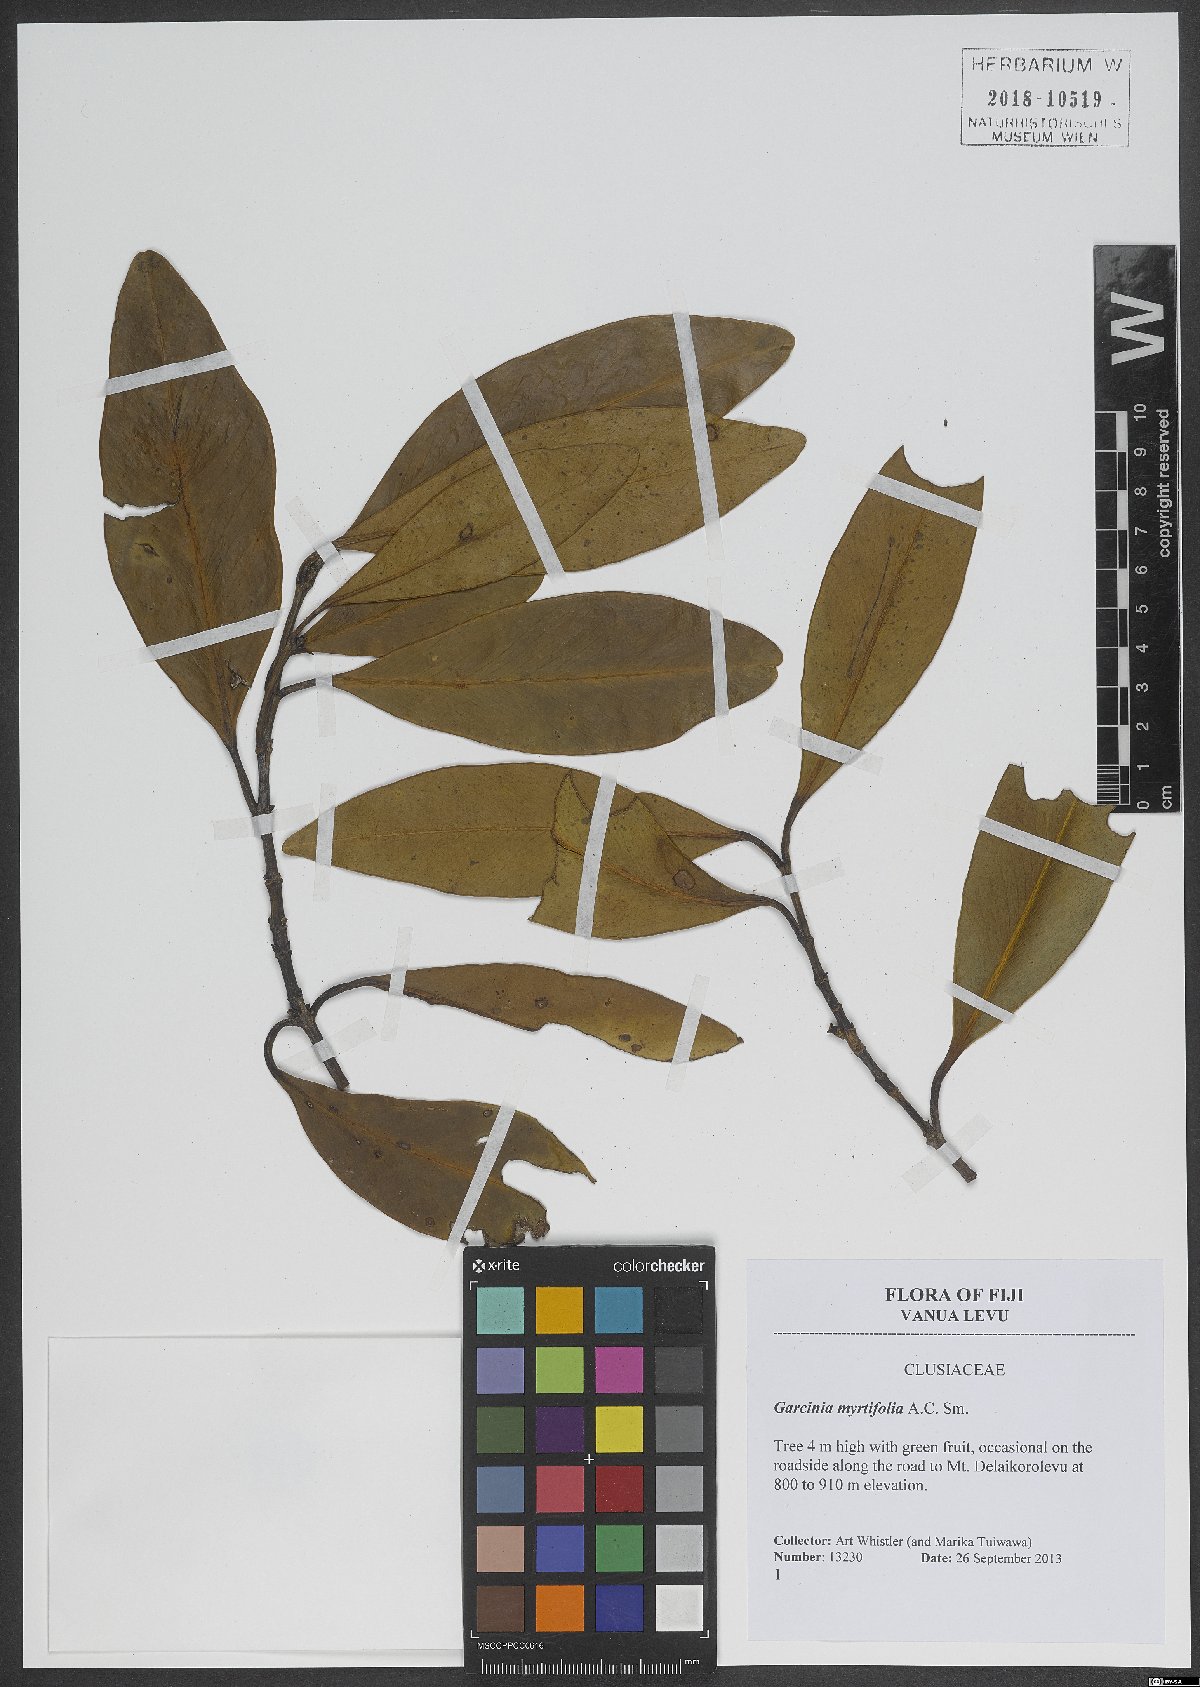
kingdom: Plantae
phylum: Tracheophyta
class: Magnoliopsida
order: Malpighiales
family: Clusiaceae
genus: Garcinia
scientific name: Garcinia myrtifolia
